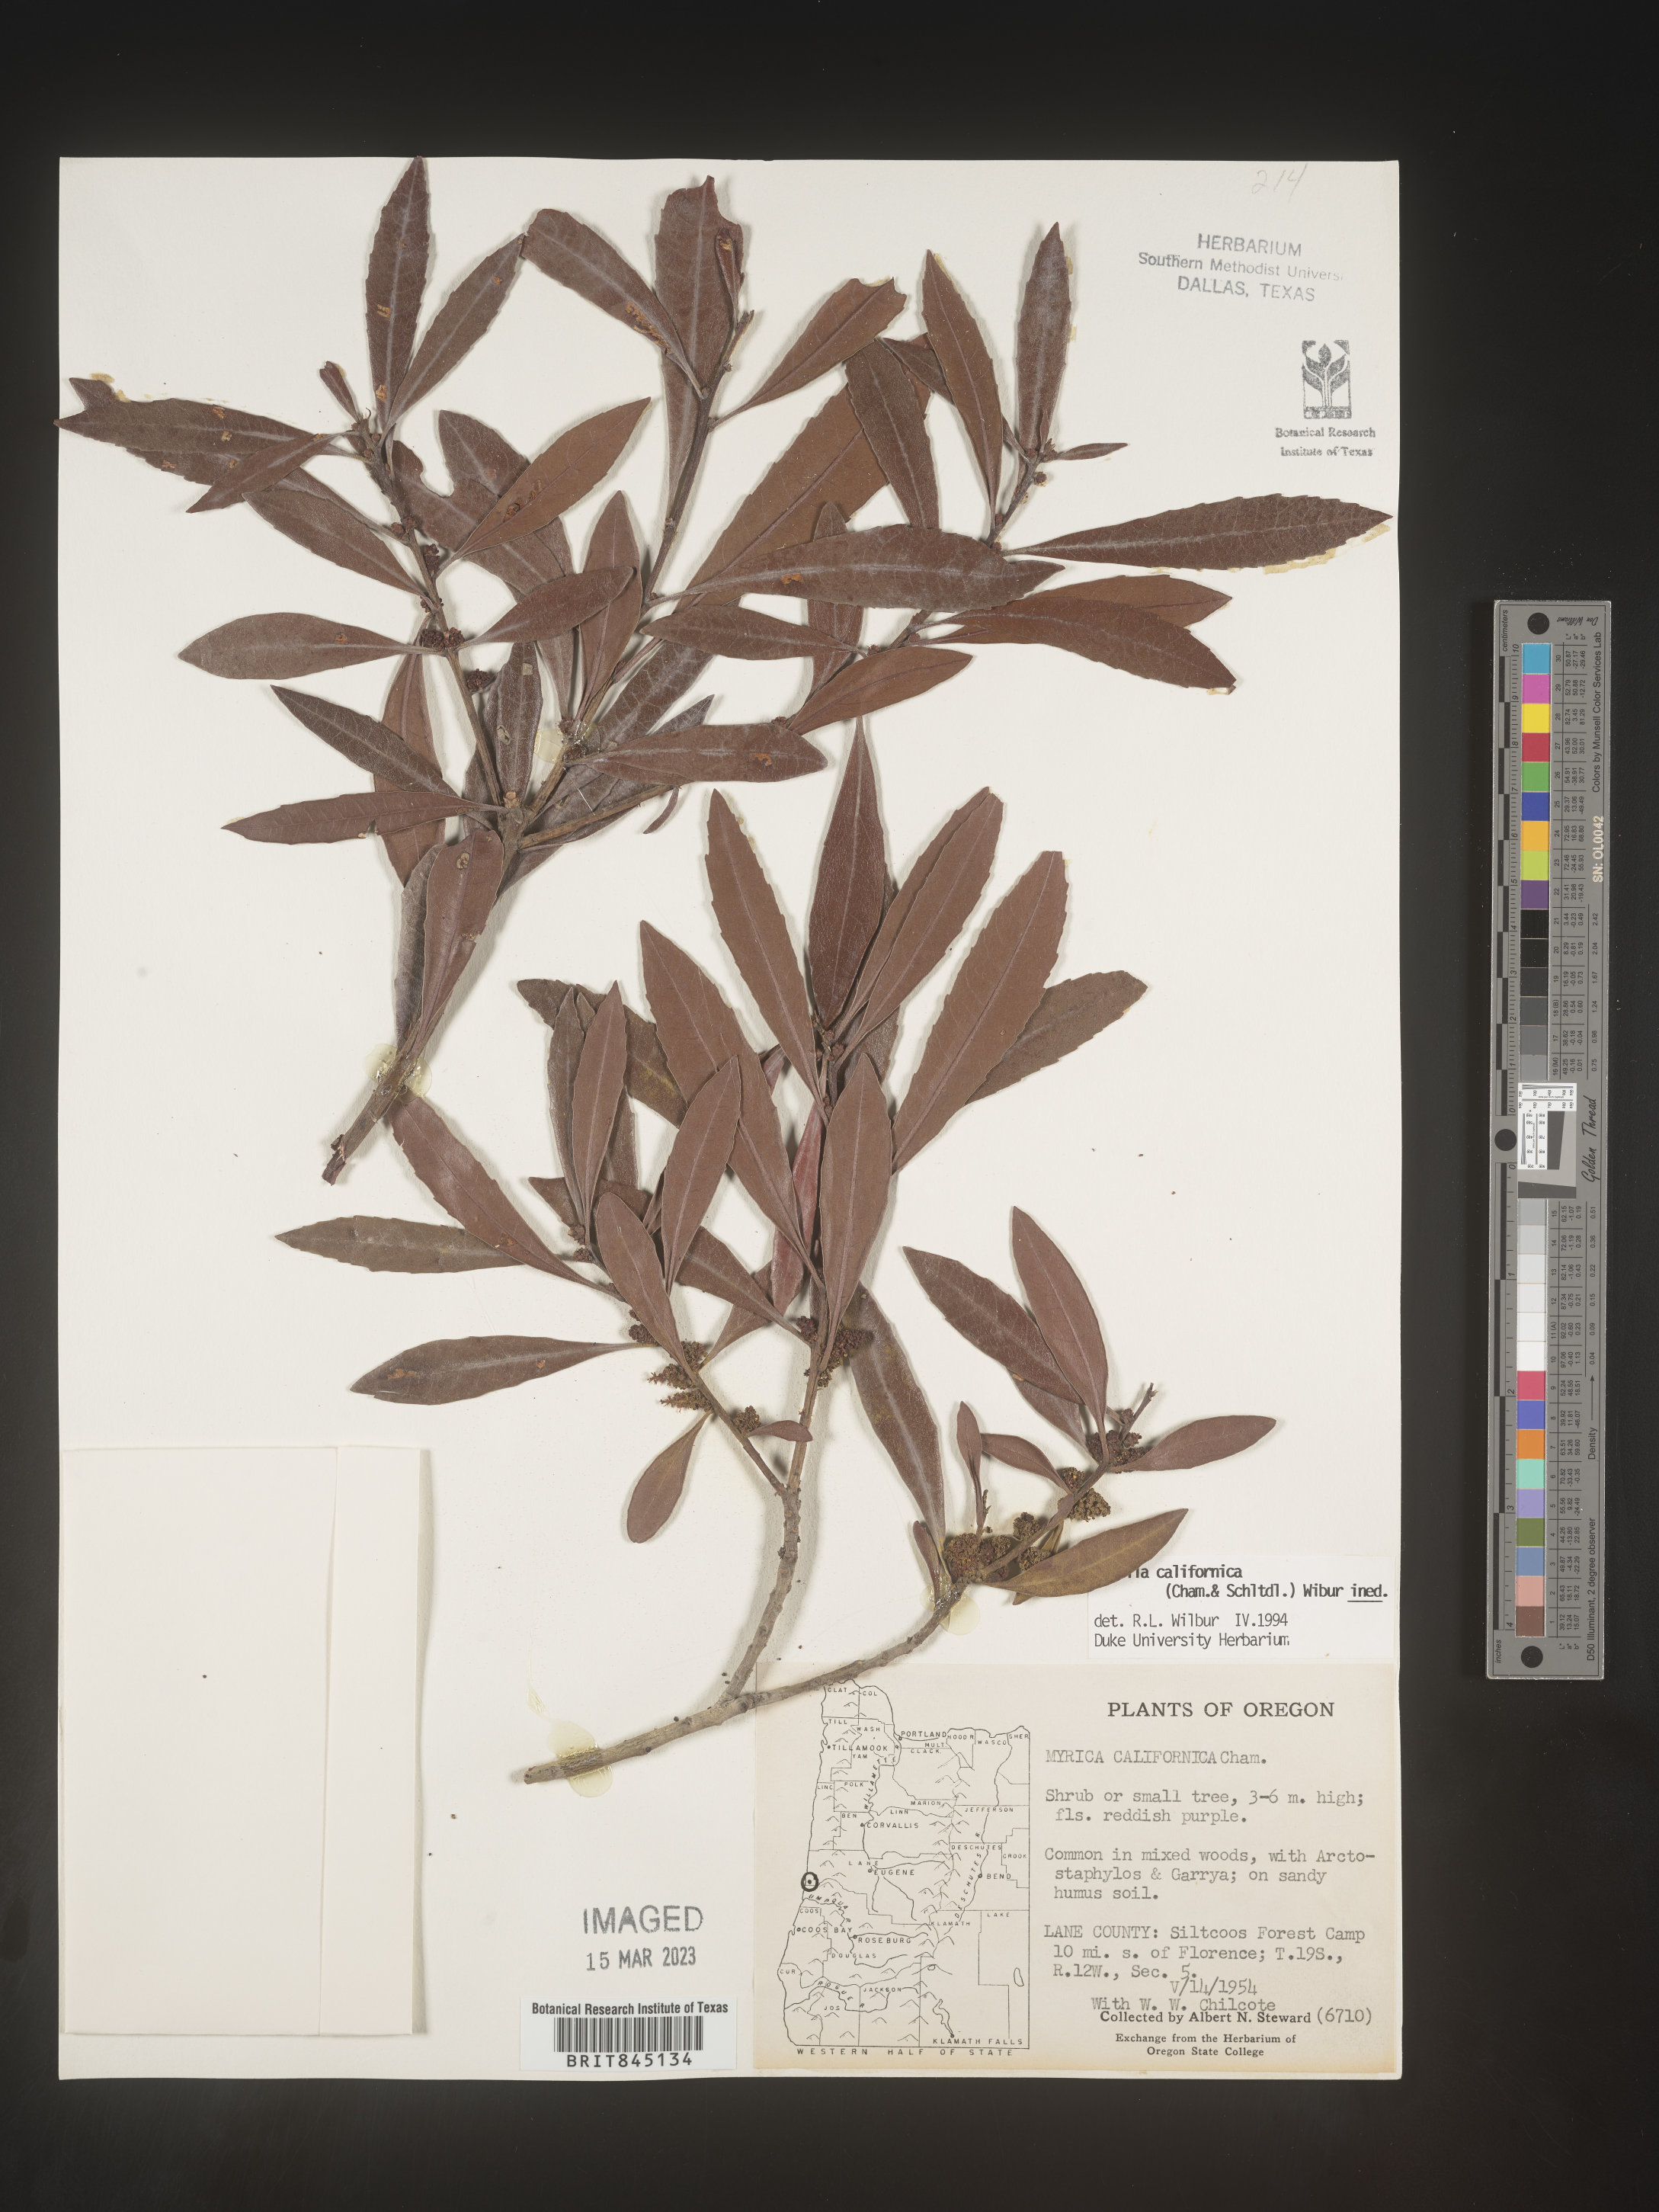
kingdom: Plantae
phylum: Tracheophyta
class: Magnoliopsida
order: Fagales
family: Myricaceae
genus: Morella
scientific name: Morella californica
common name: California wax-myrtle
